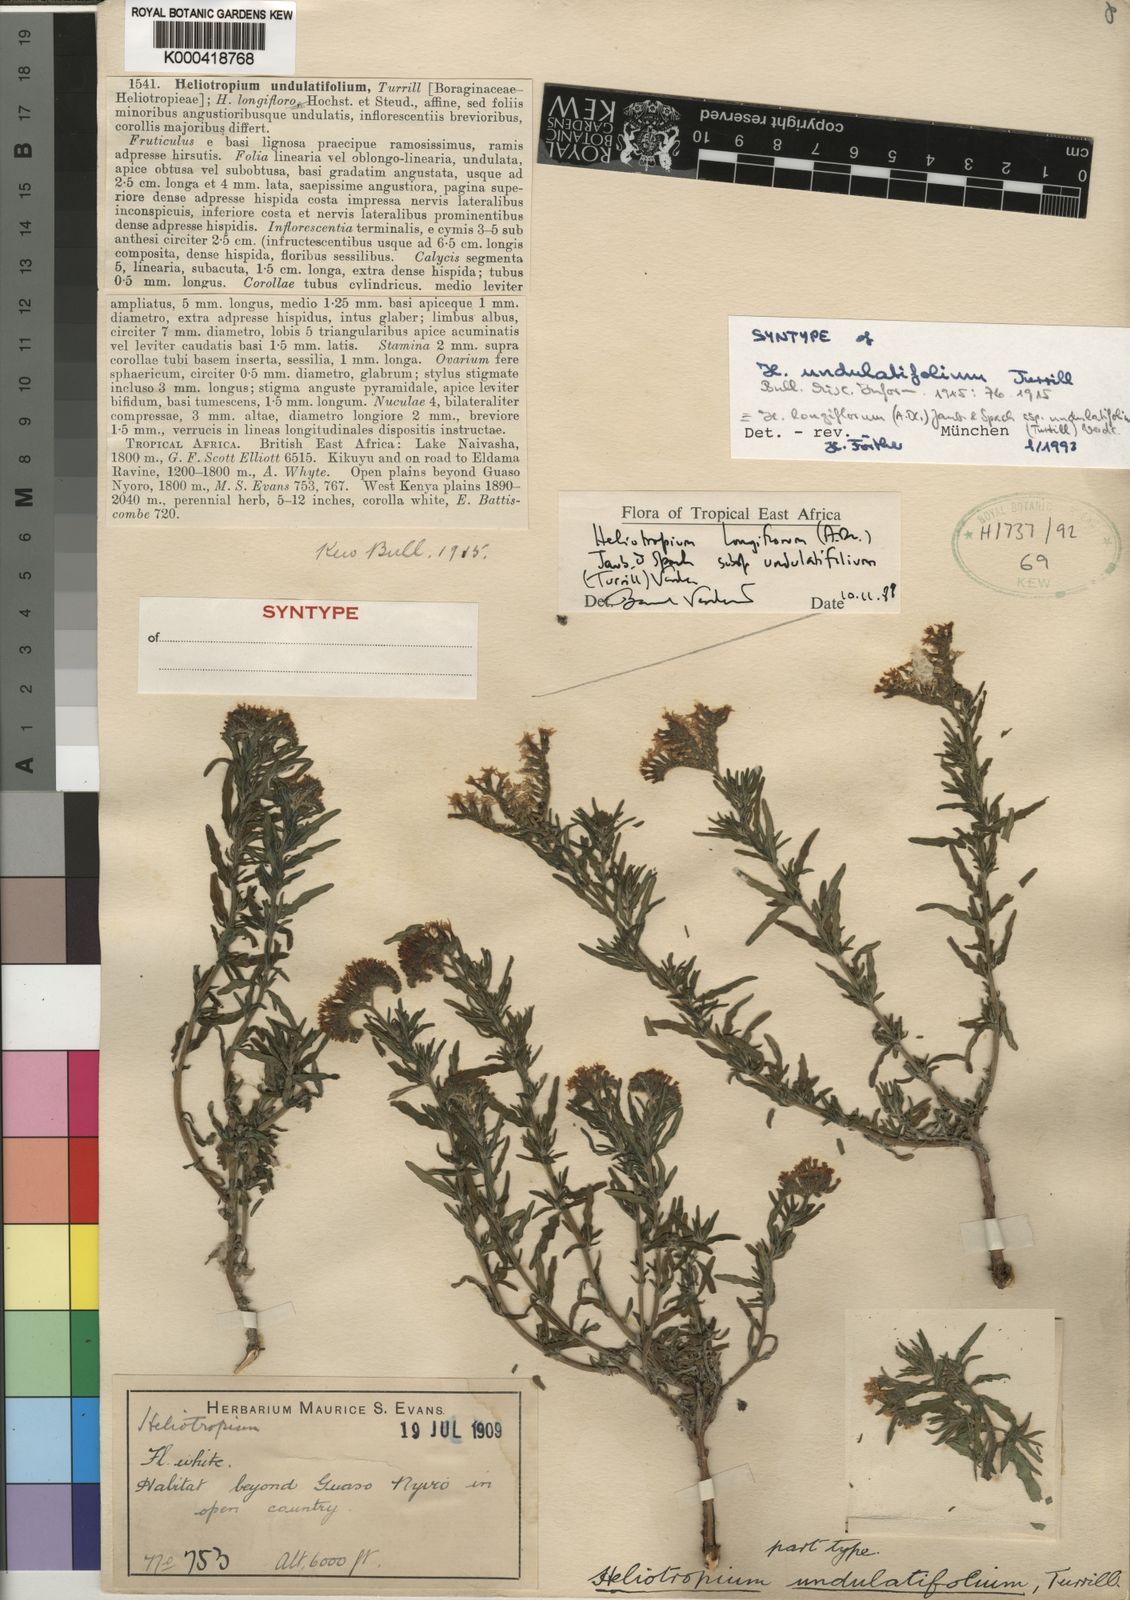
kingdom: Plantae
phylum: Tracheophyta
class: Magnoliopsida
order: Boraginales
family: Heliotropiaceae
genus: Heliotropium
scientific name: Heliotropium longiflorum
